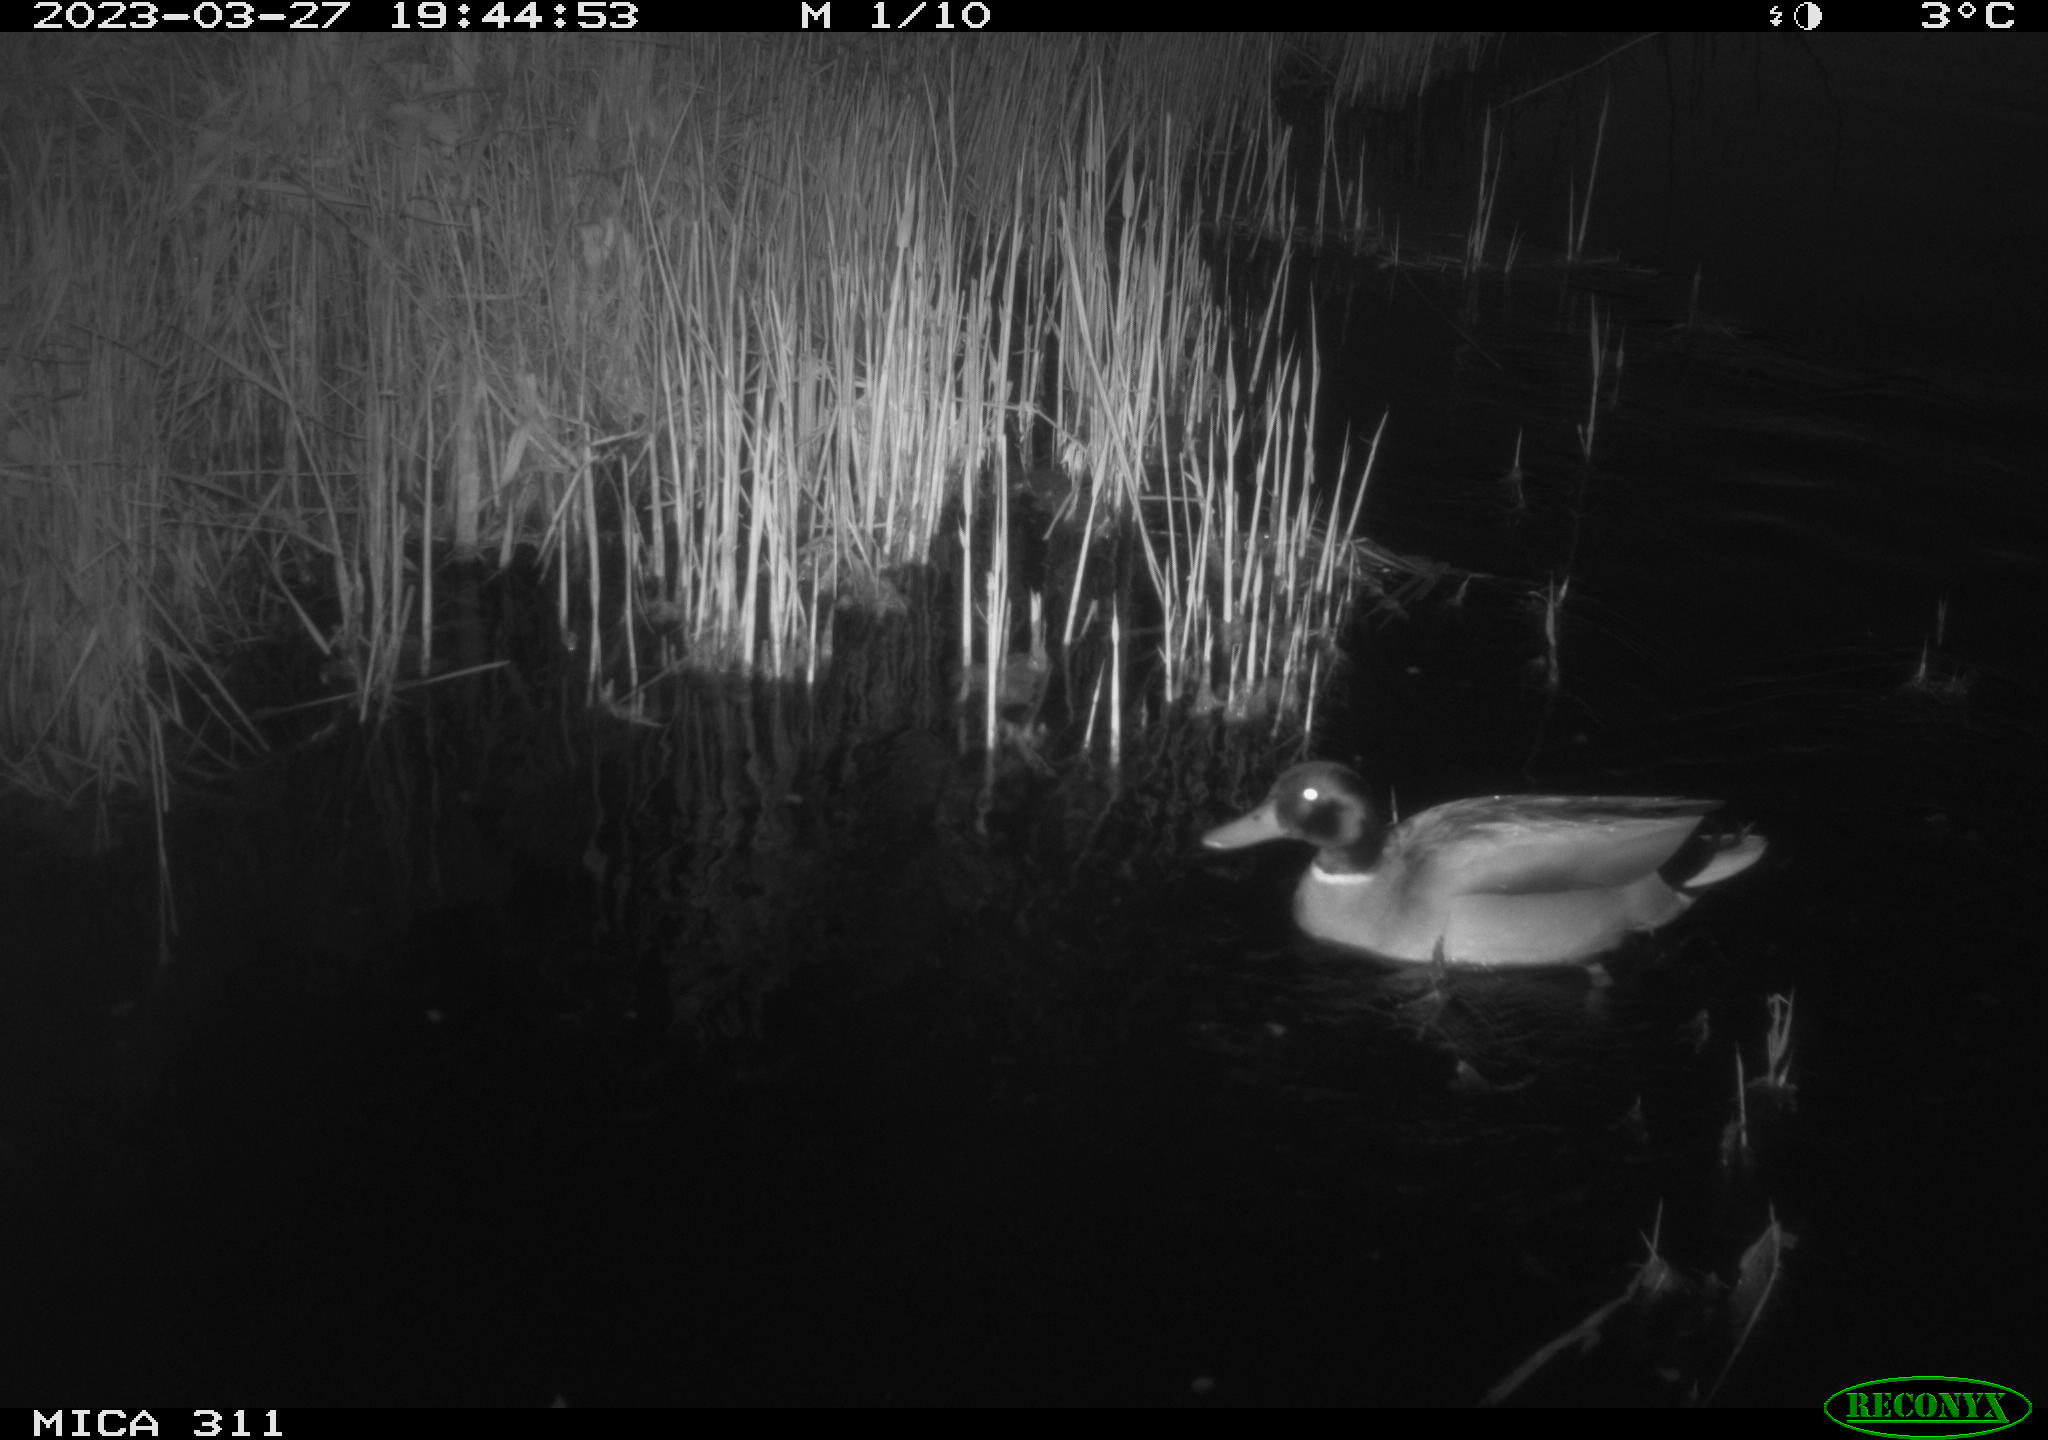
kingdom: Animalia
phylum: Chordata
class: Aves
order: Anseriformes
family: Anatidae
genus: Anas
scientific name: Anas
